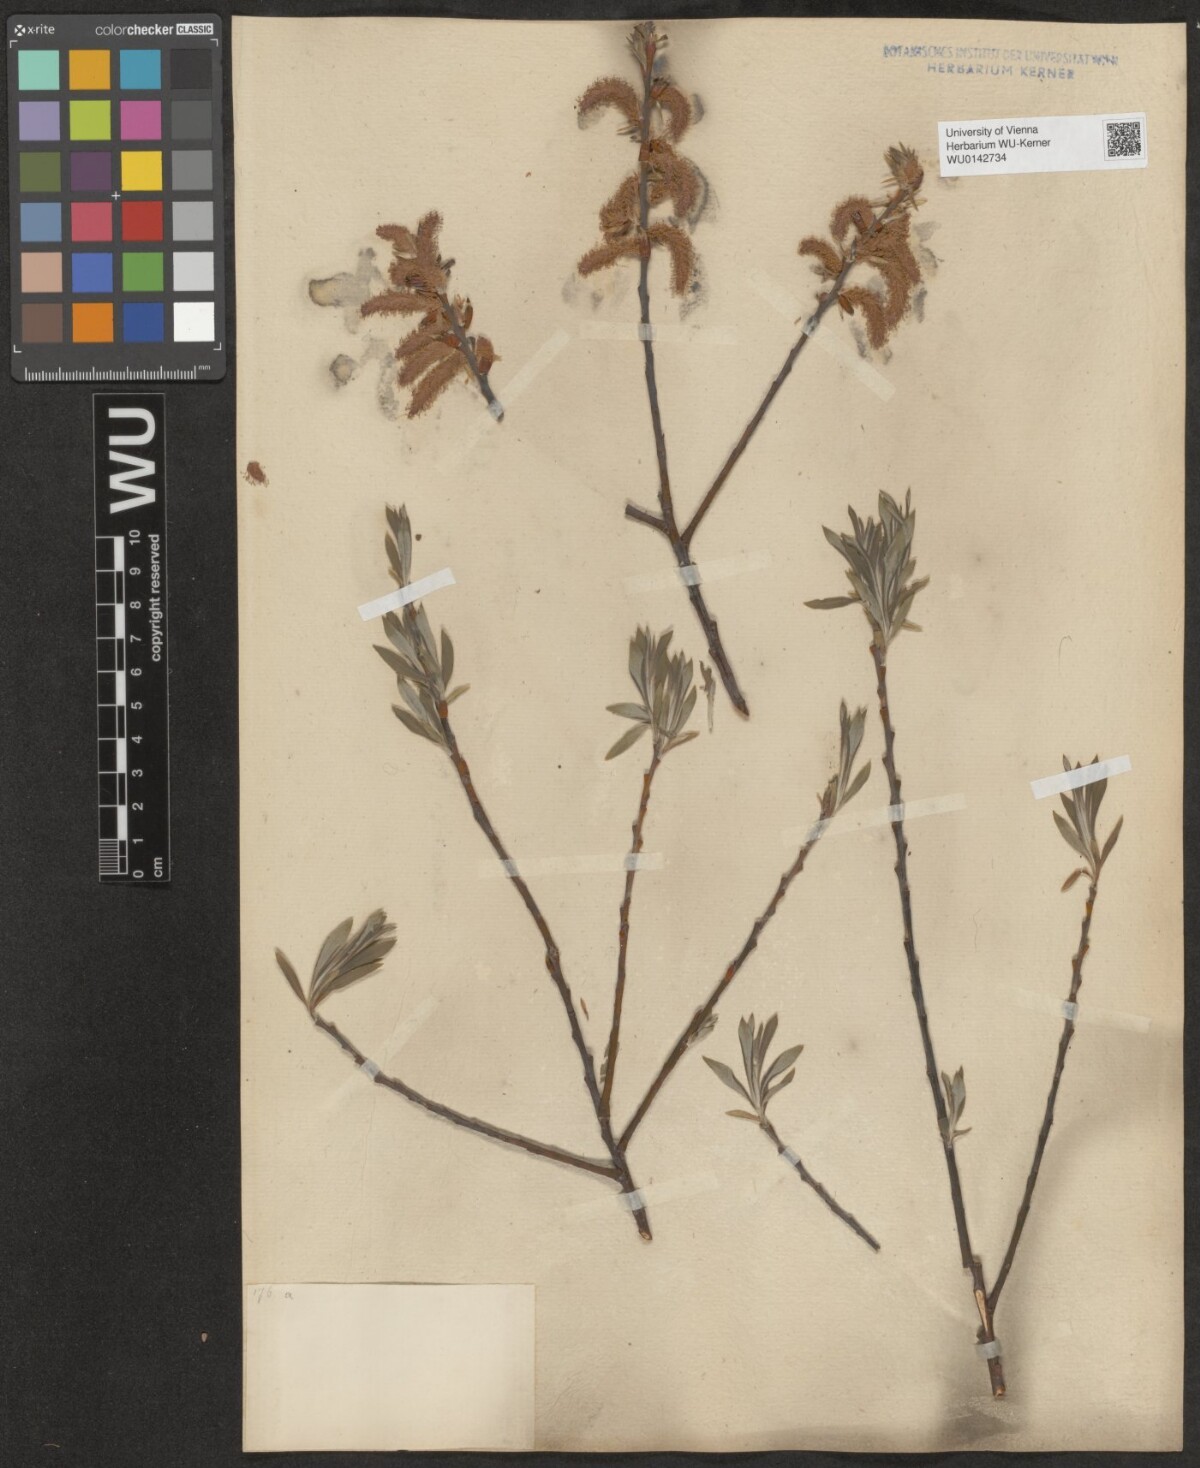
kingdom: Plantae
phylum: Tracheophyta
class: Magnoliopsida
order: Malpighiales
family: Salicaceae
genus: Salix
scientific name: Salix eleagnos
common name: Elaeagnus willow
